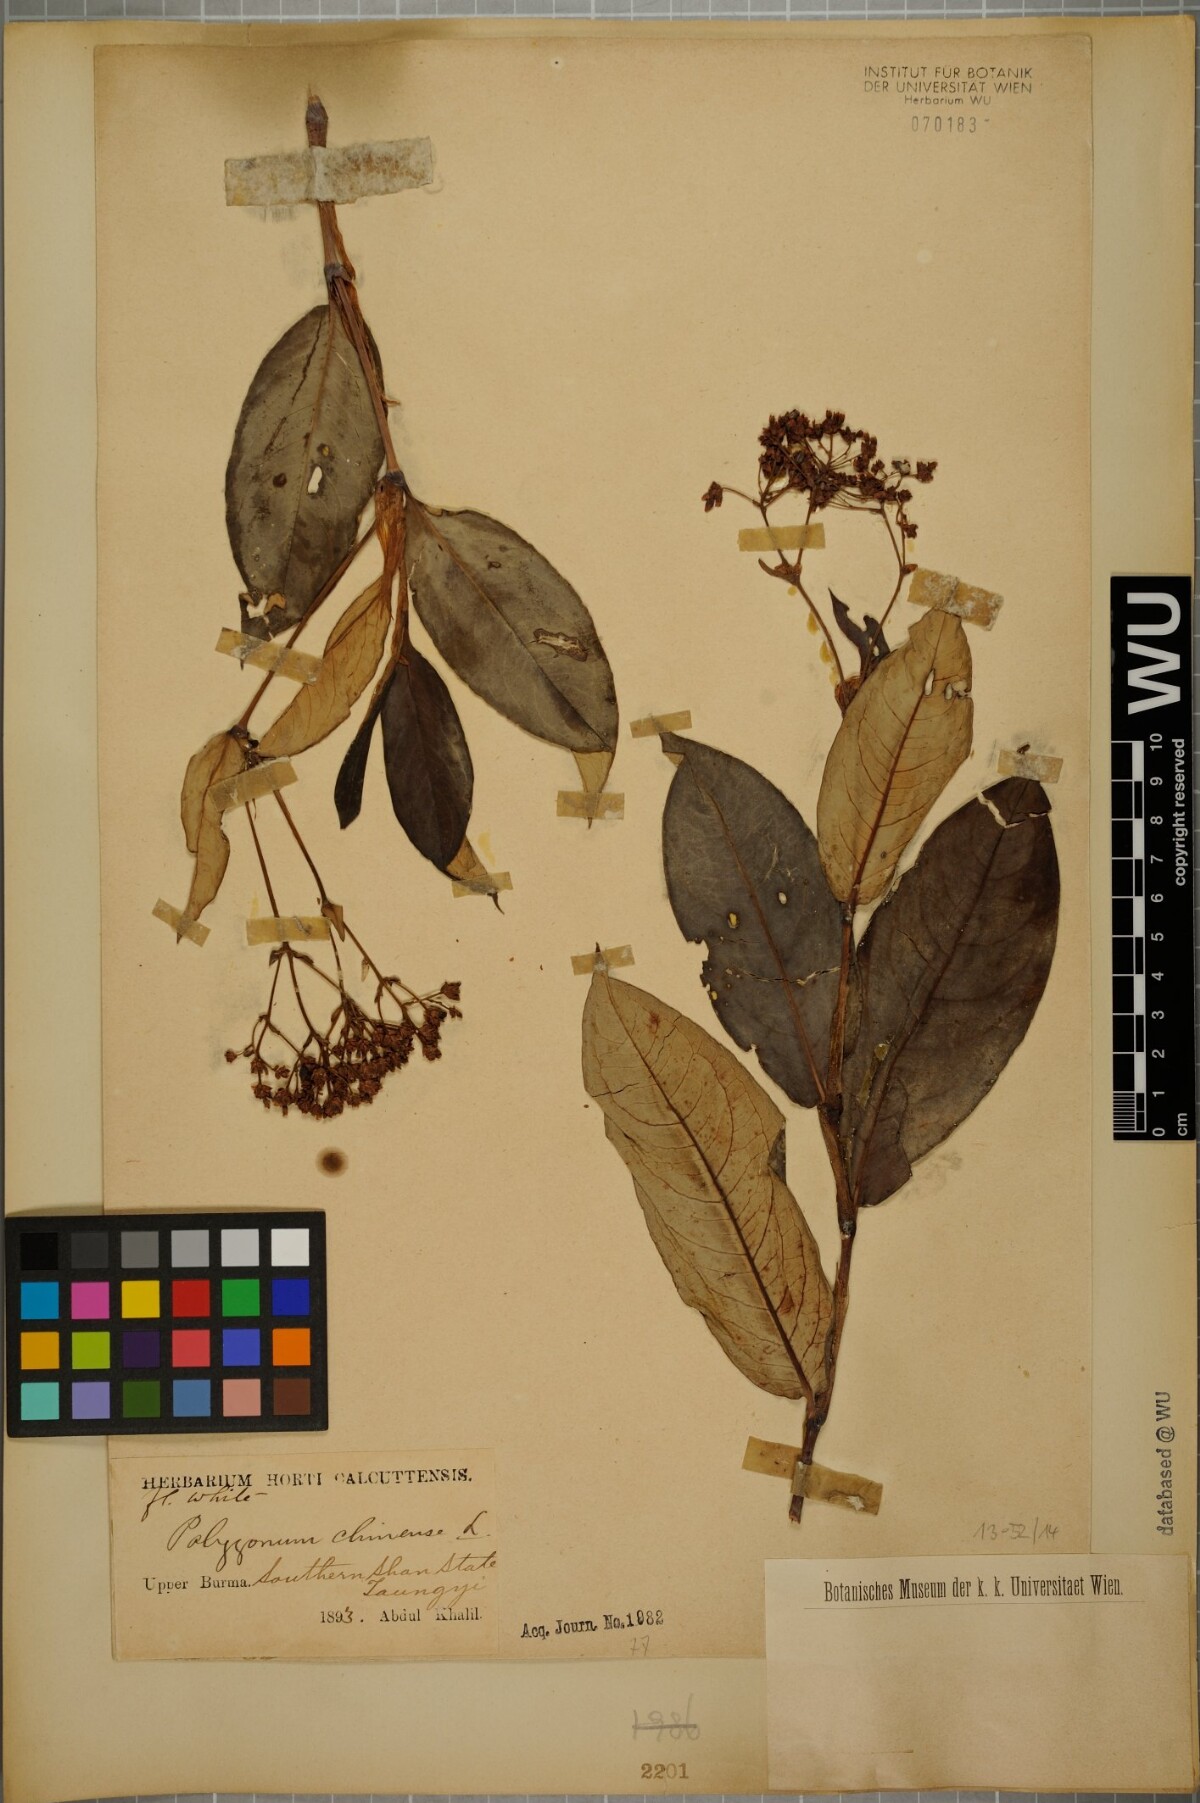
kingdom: Plantae
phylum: Tracheophyta
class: Magnoliopsida
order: Caryophyllales
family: Polygonaceae
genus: Persicaria
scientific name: Persicaria chinensis
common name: Chinese knotweed
